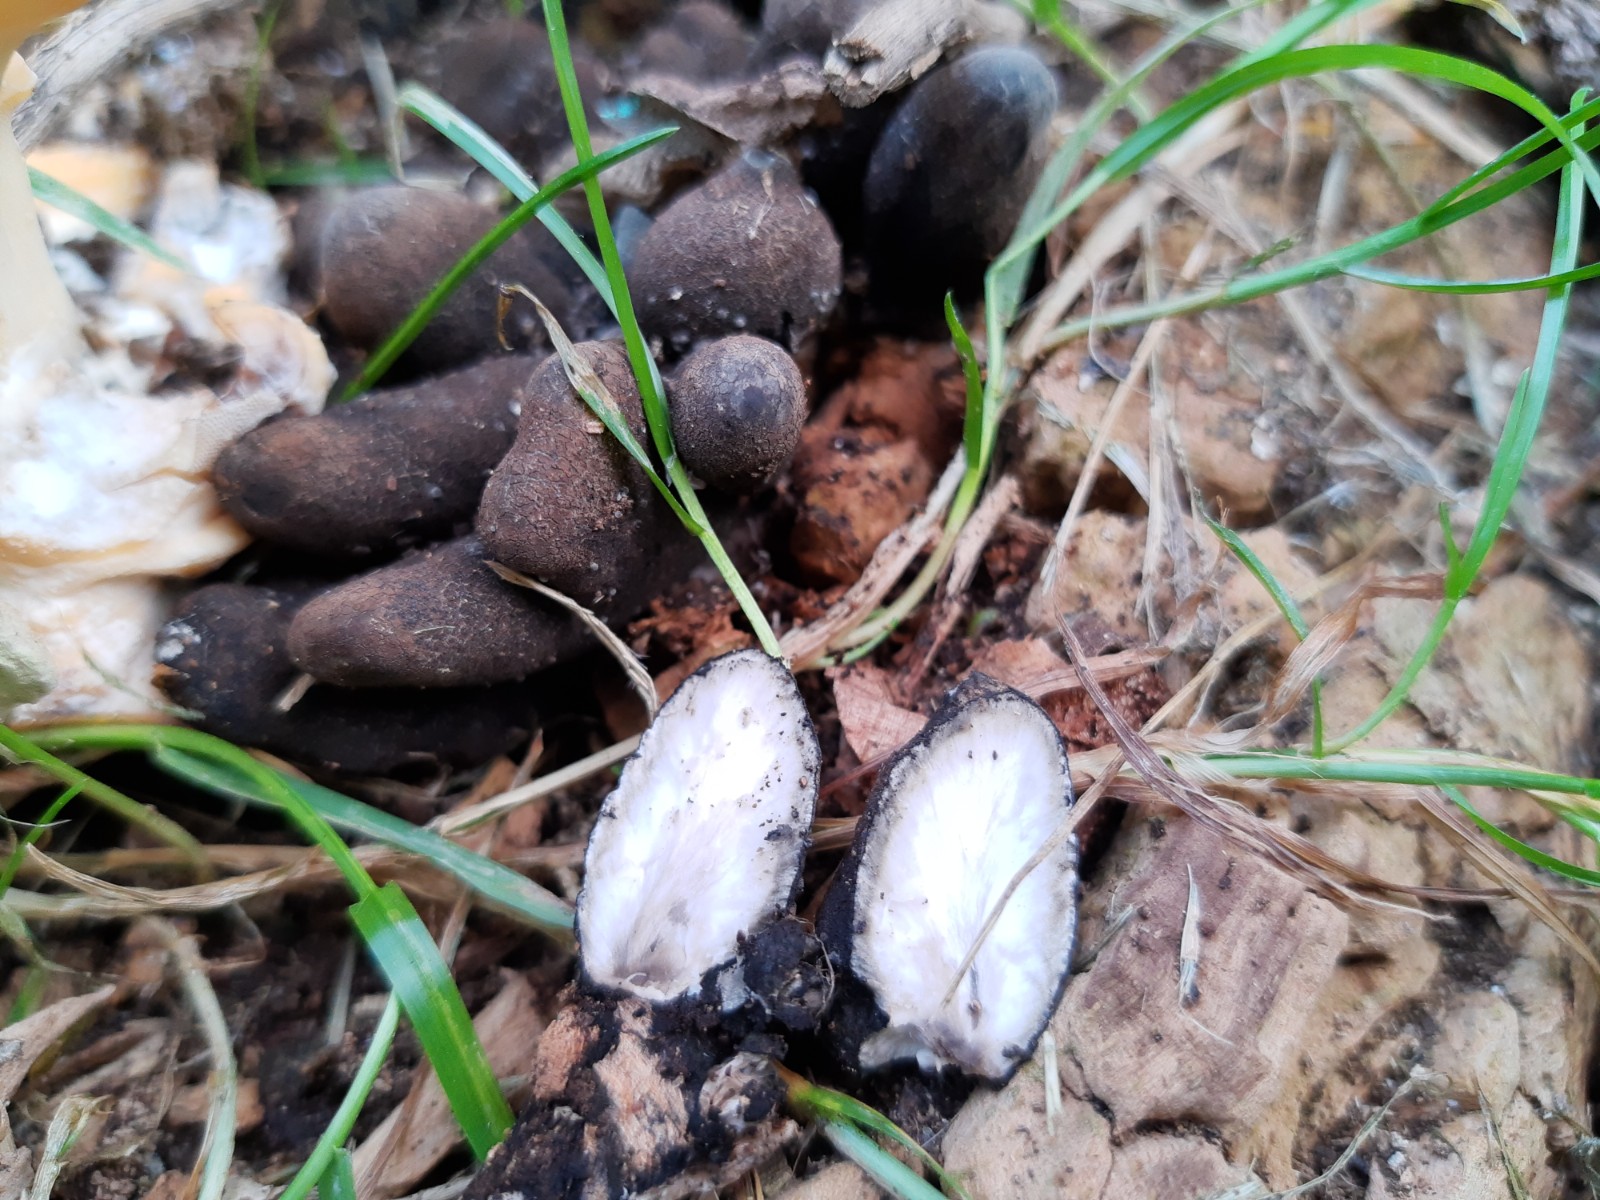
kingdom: Fungi
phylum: Ascomycota
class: Sordariomycetes
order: Xylariales
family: Xylariaceae
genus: Xylaria
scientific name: Xylaria polymorpha
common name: kølle-stødsvamp
